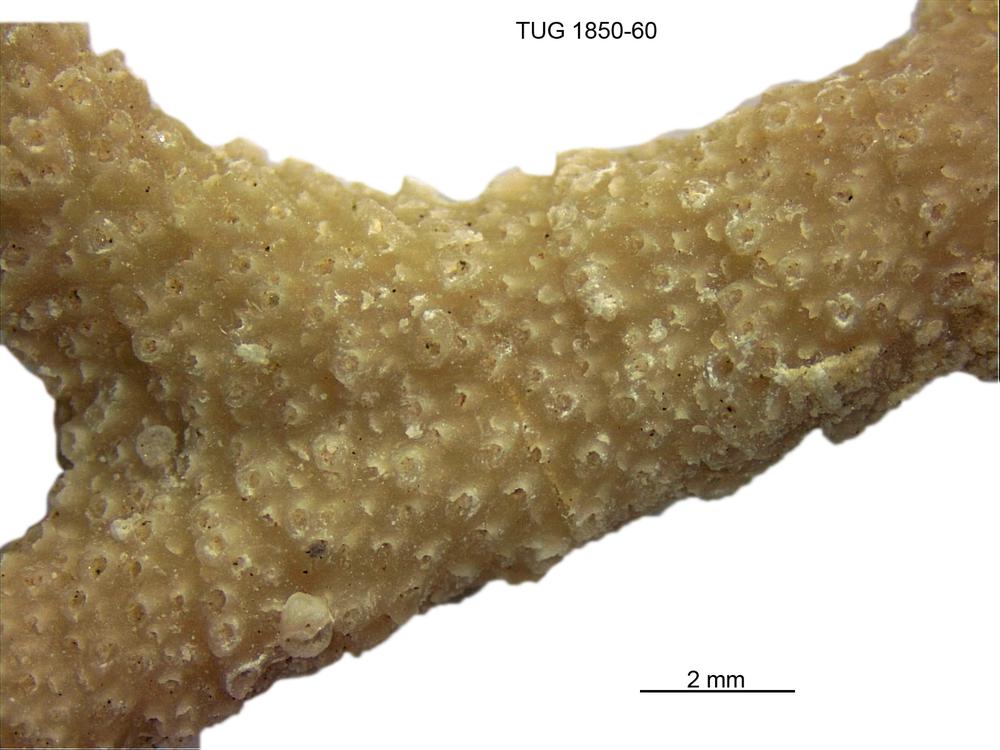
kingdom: Animalia
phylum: Cnidaria
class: Anthozoa
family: Coenitidae
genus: Coenites
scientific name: Coenites juniperinus
